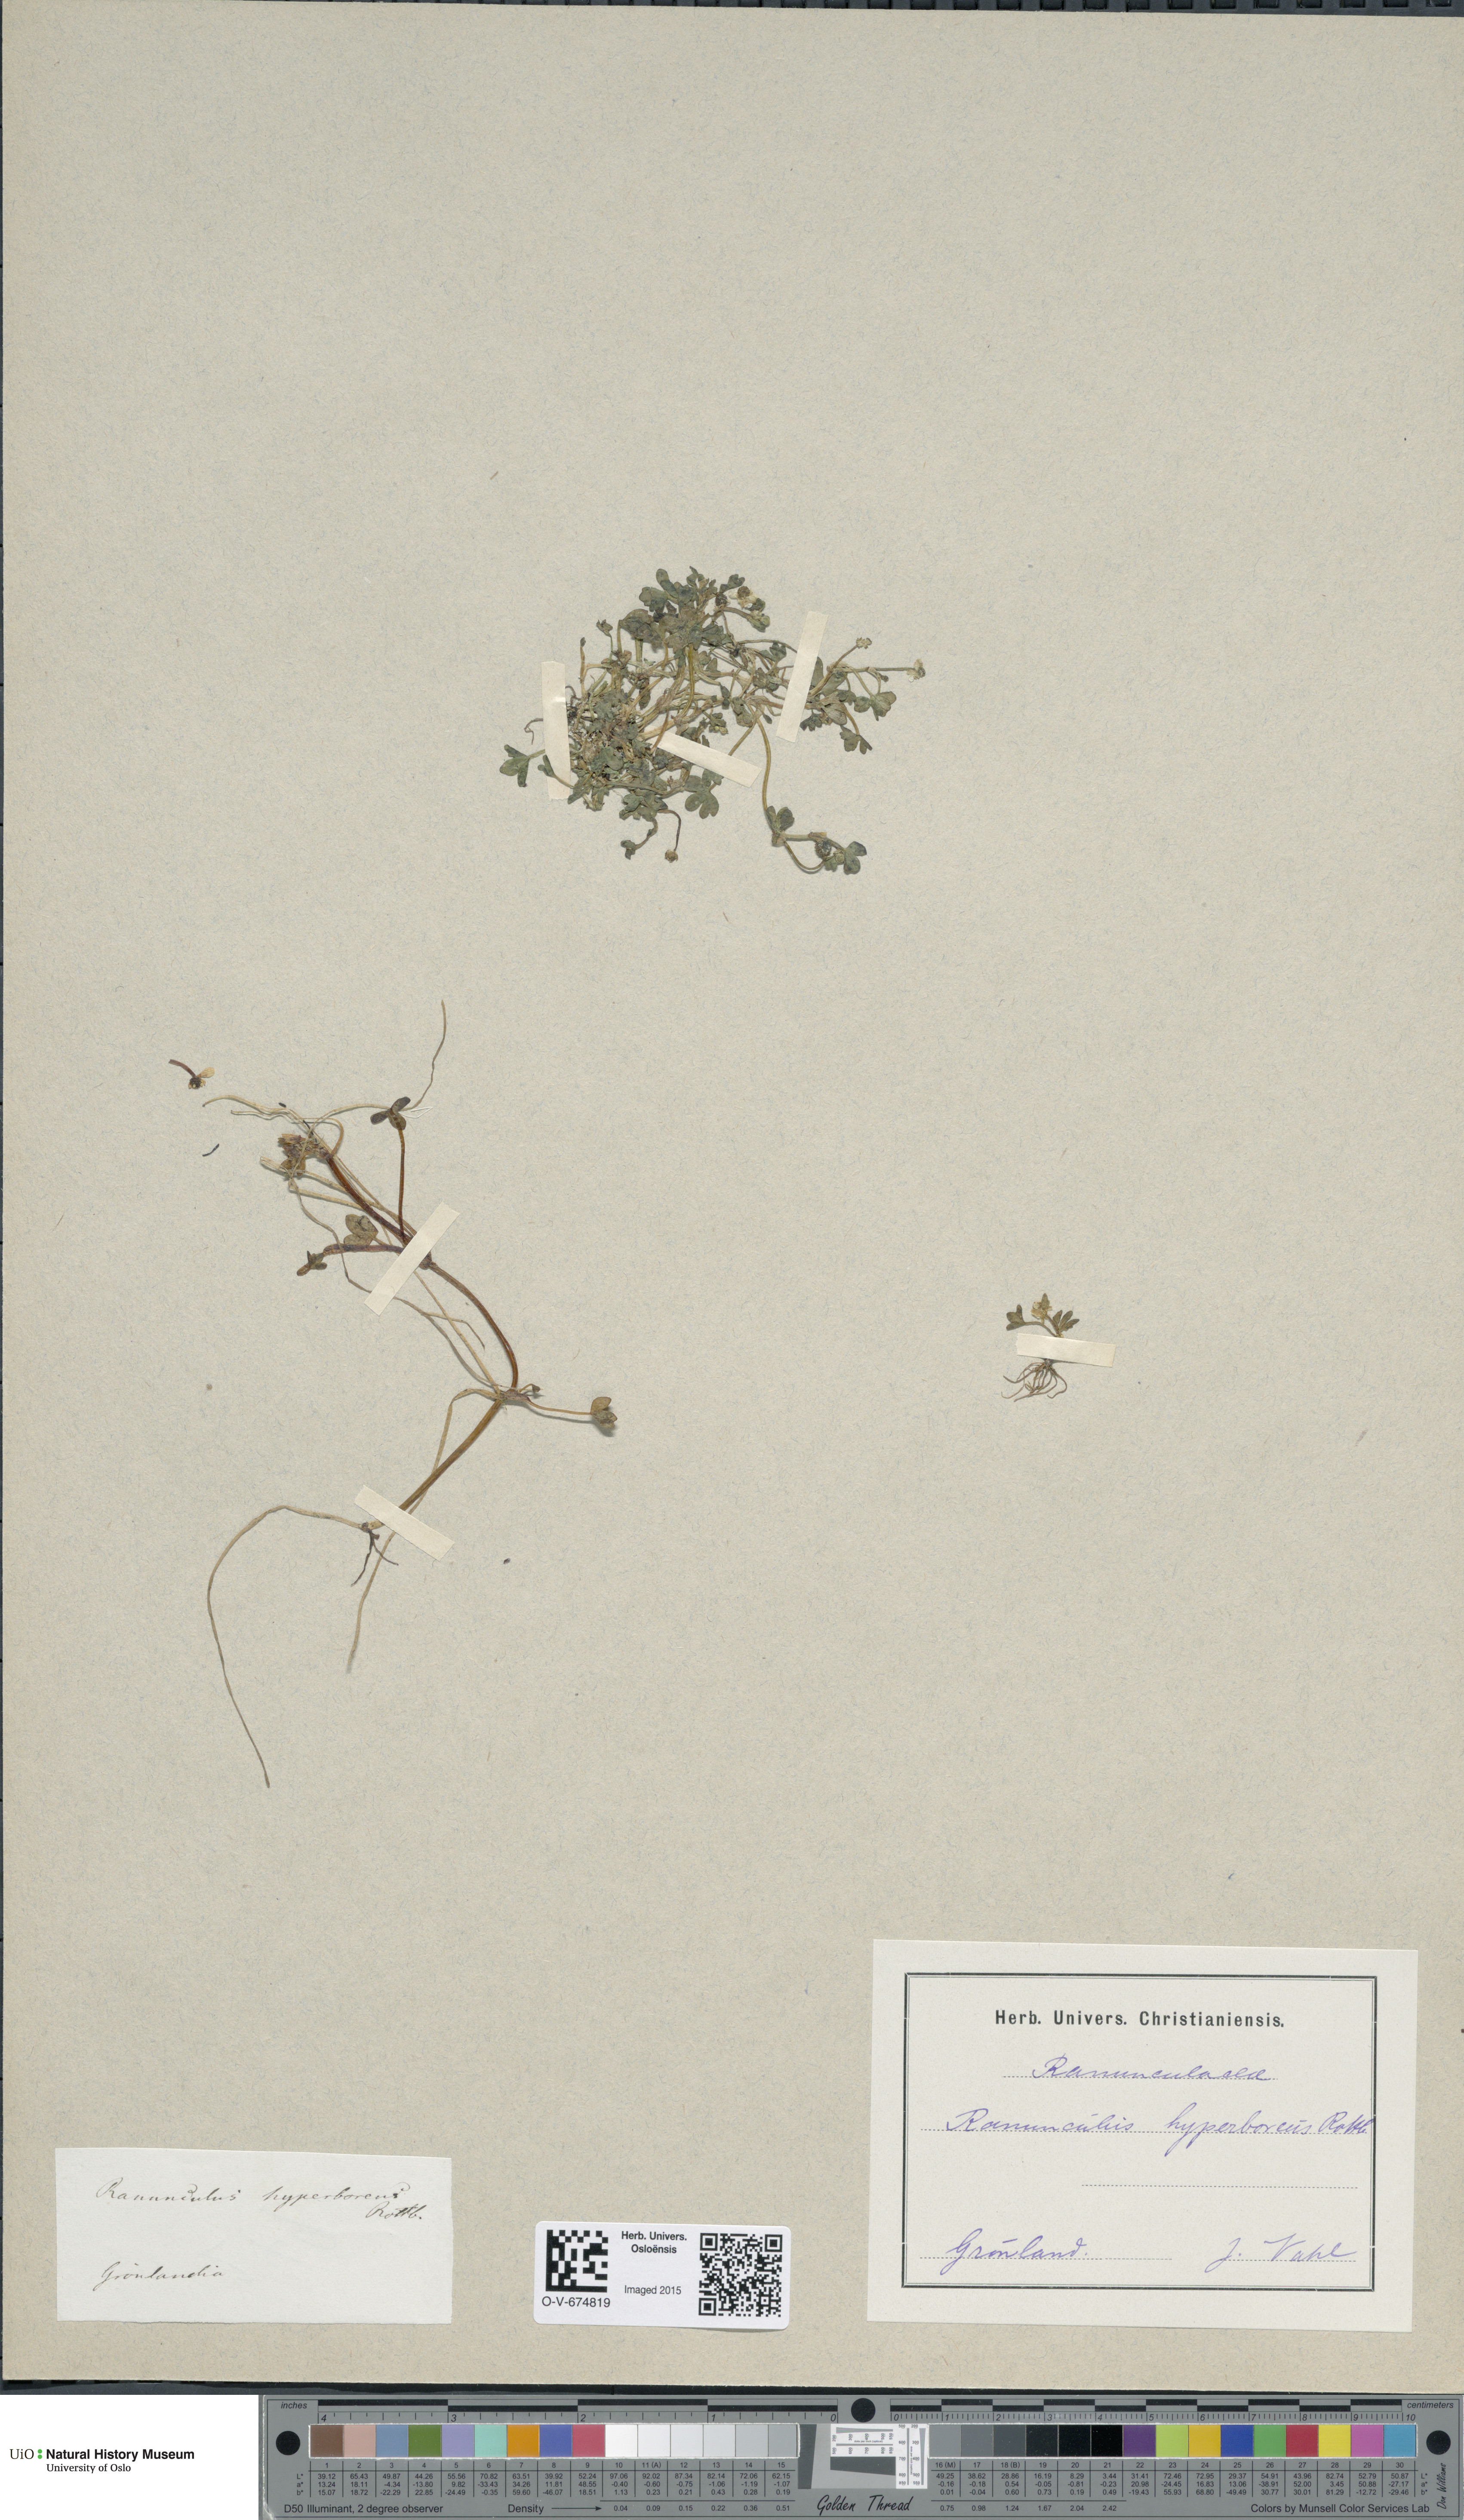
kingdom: Plantae
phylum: Tracheophyta
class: Magnoliopsida
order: Ranunculales
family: Ranunculaceae
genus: Ranunculus
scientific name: Ranunculus hyperboreus
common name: Arctic buttercup
